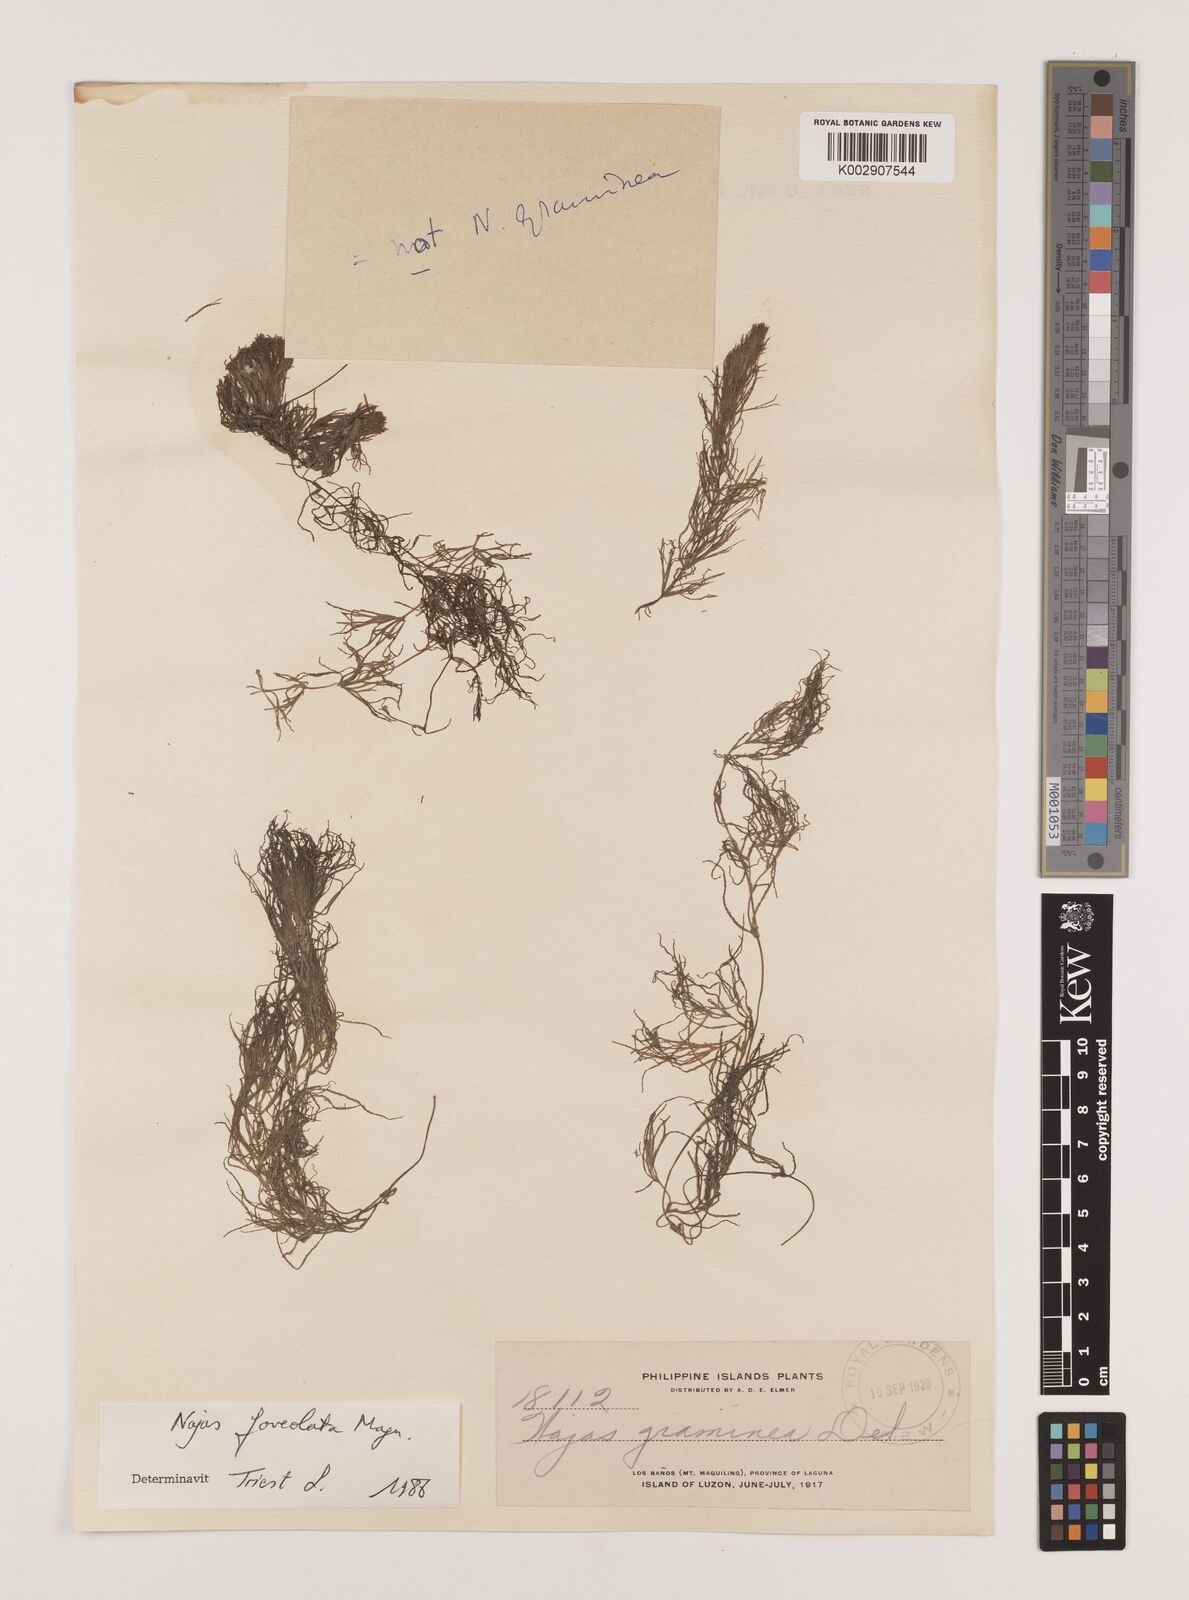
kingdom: Plantae
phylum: Tracheophyta
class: Liliopsida
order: Alismatales
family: Hydrocharitaceae
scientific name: Hydrocharitaceae
